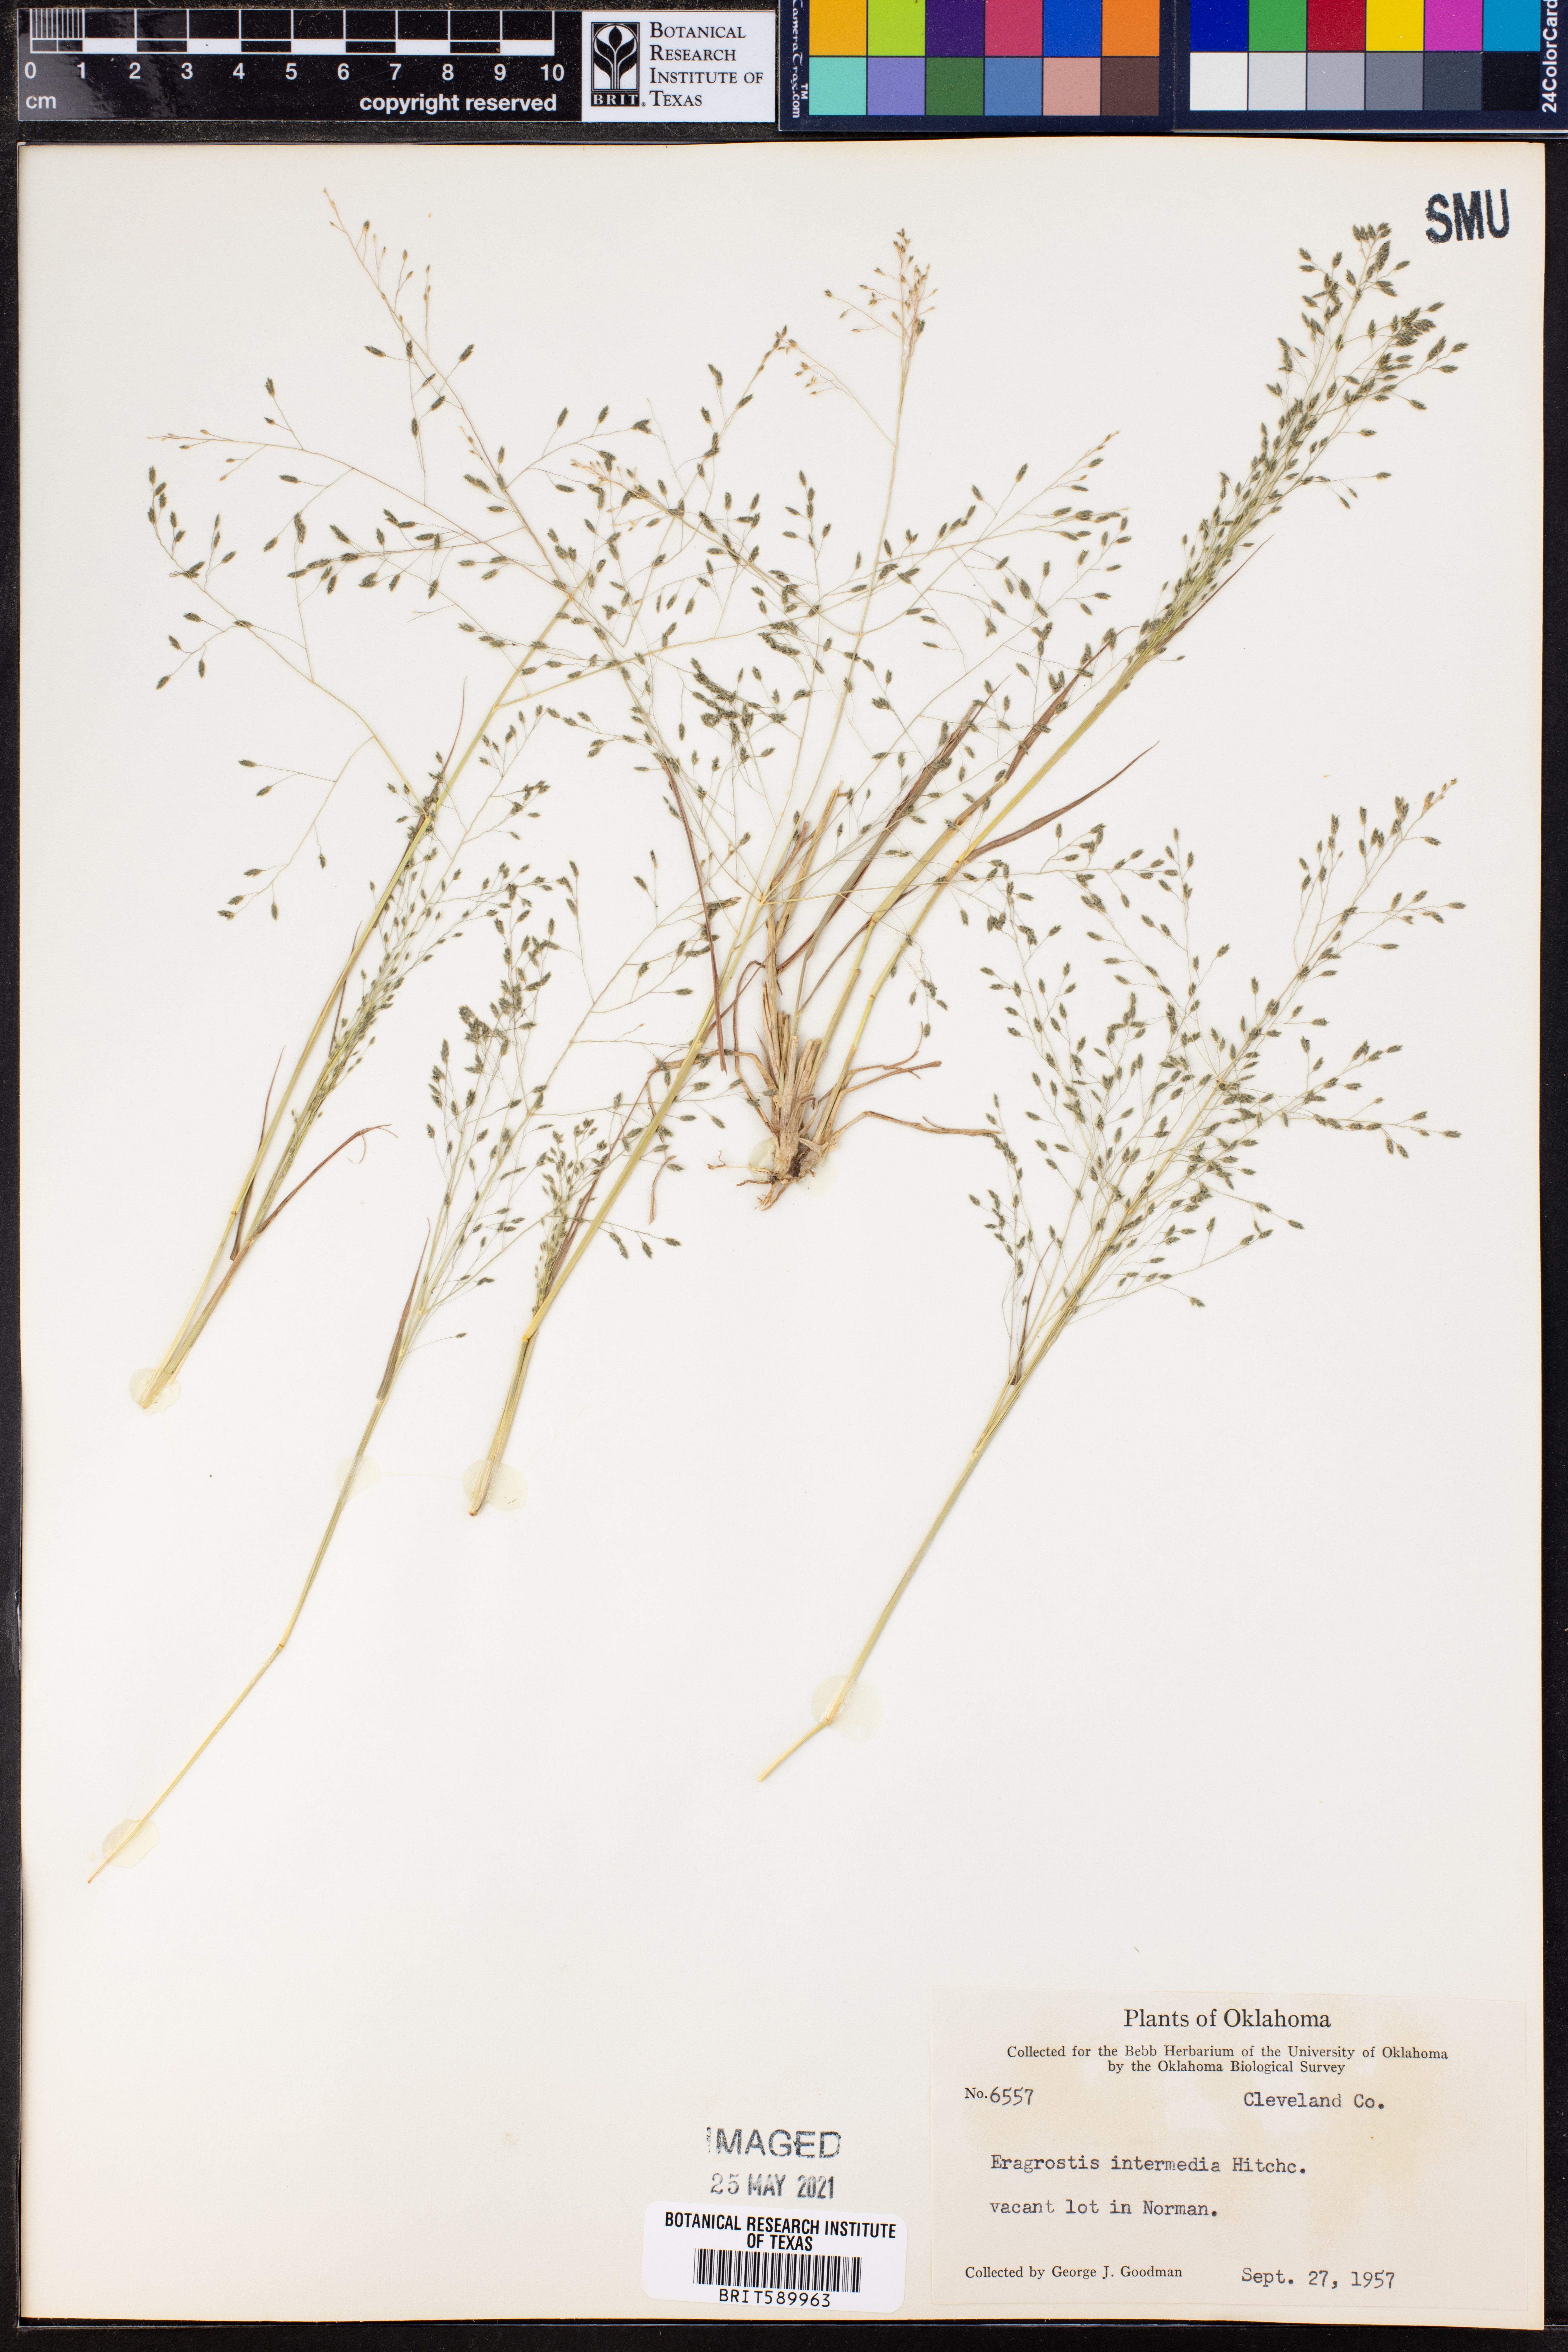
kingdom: Plantae
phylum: Tracheophyta
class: Liliopsida
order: Poales
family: Poaceae
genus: Eragrostis
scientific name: Eragrostis intermedia
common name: Plains love grass
